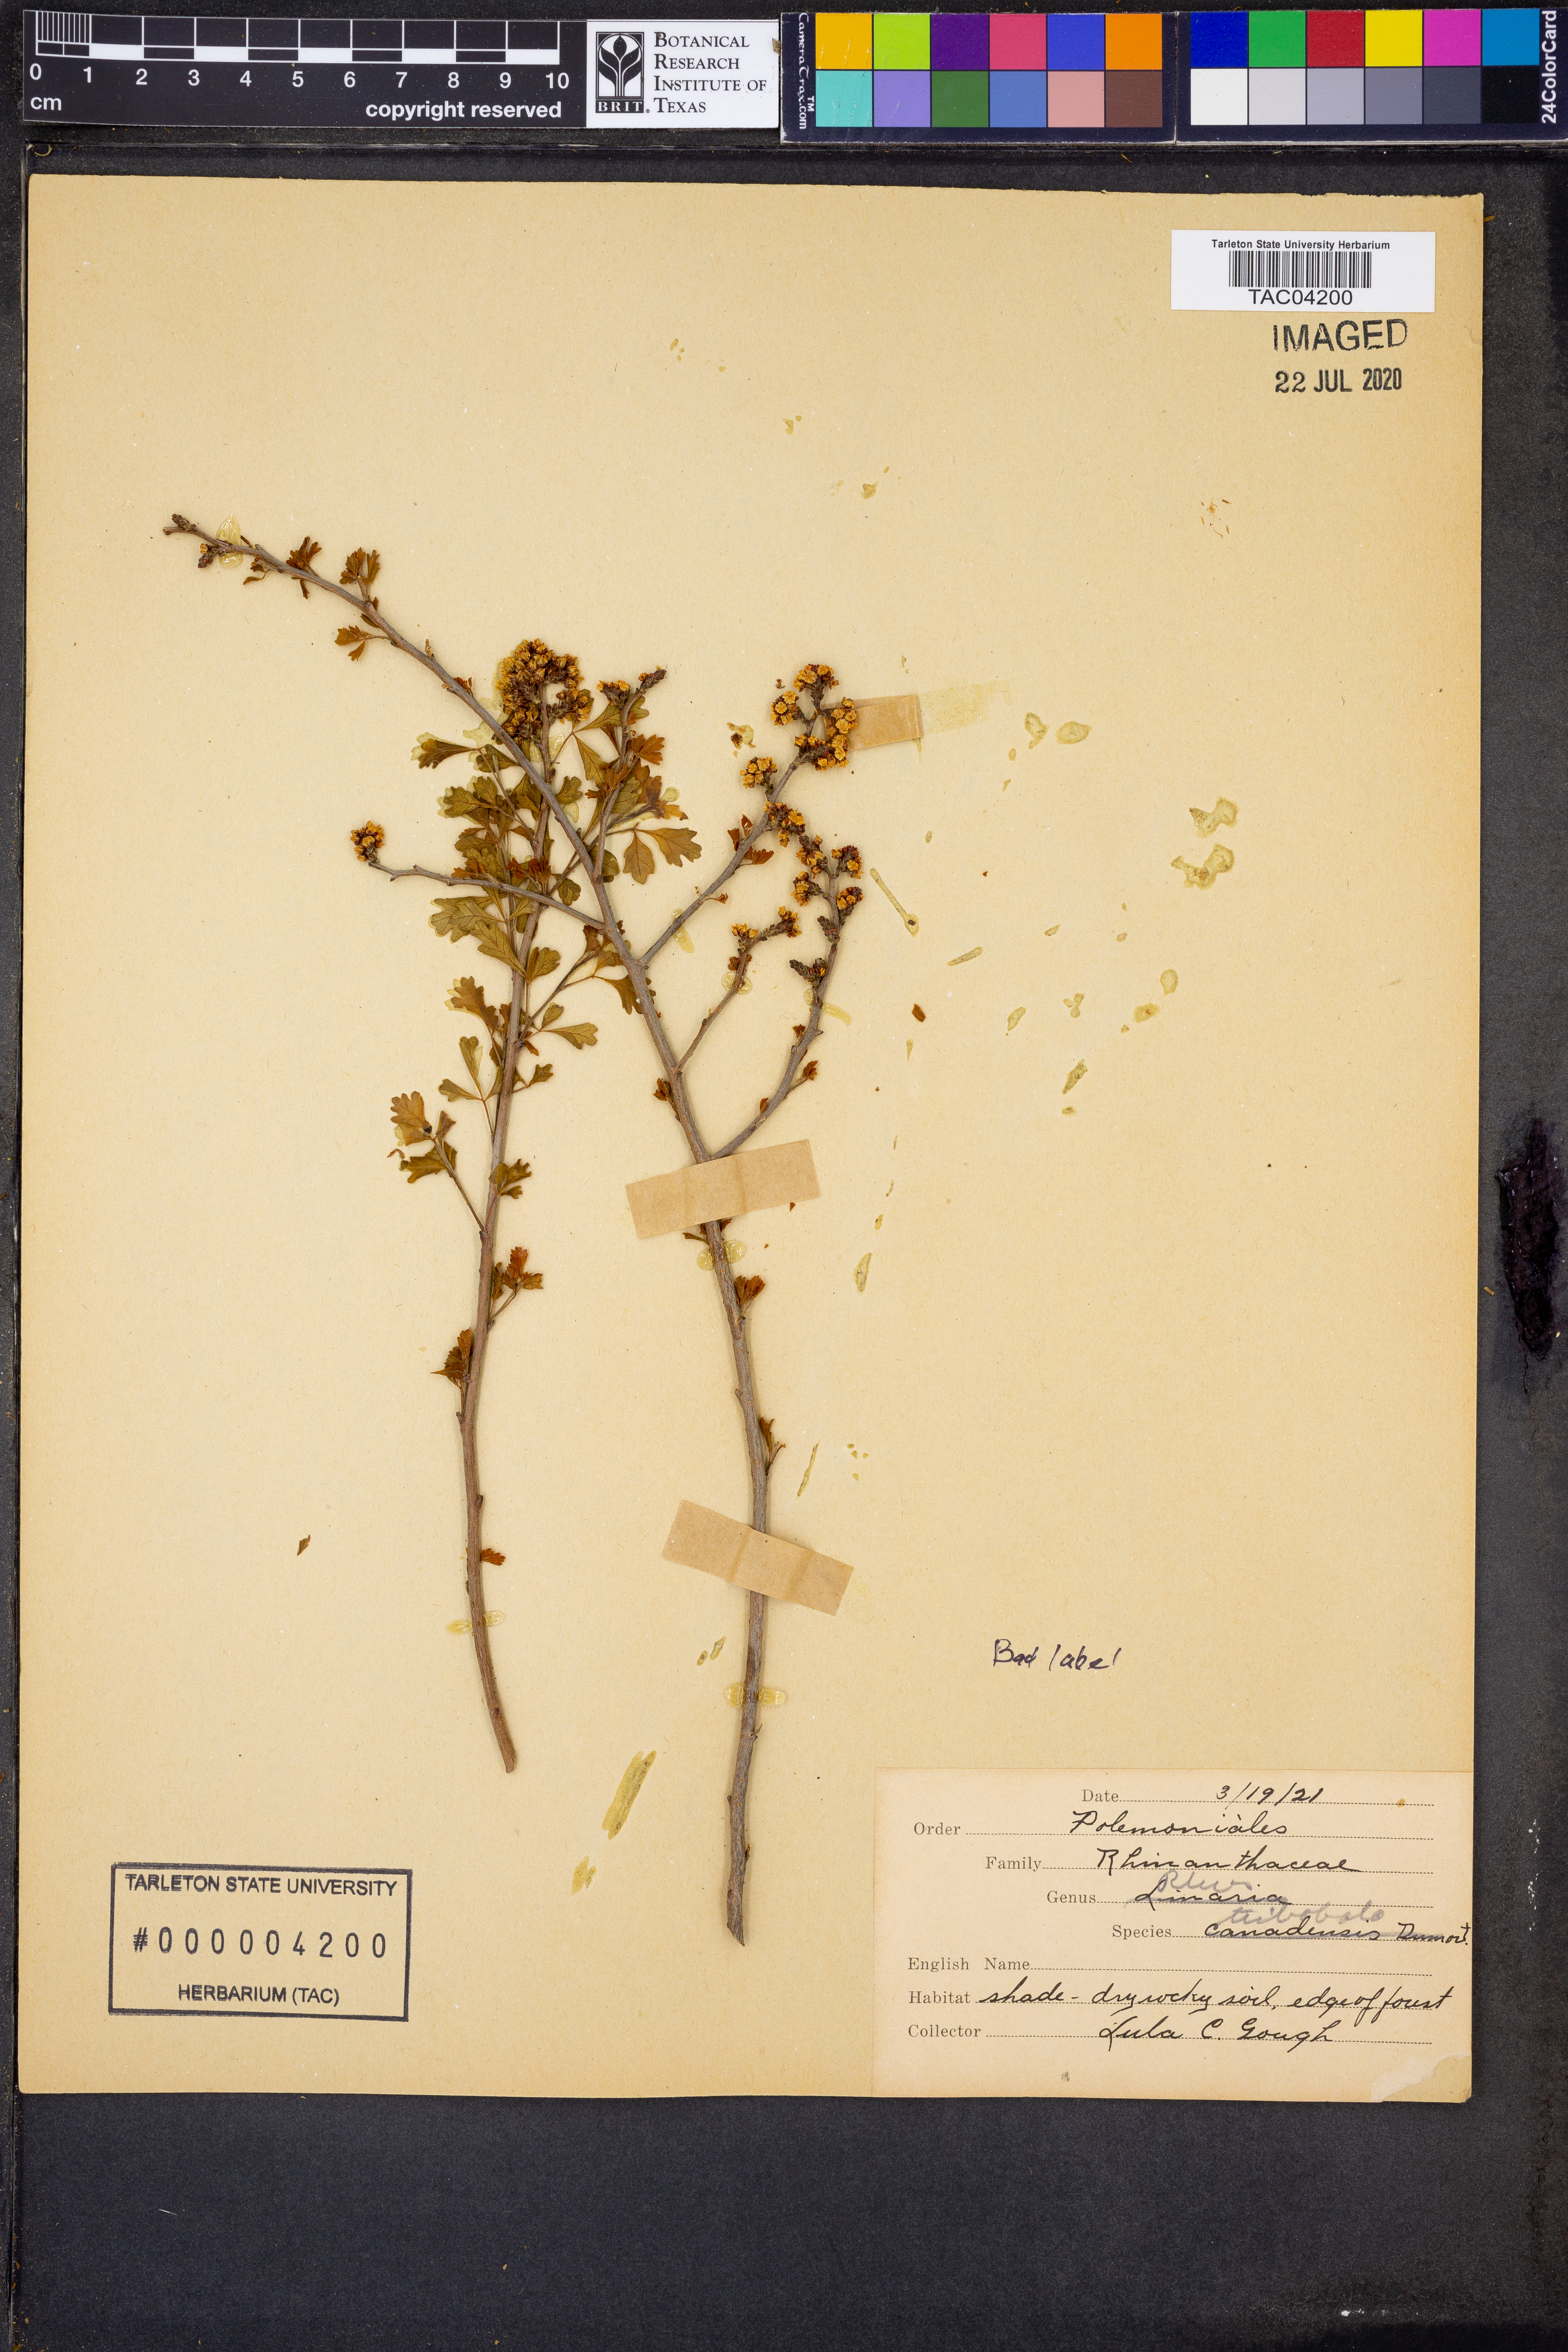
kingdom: Plantae
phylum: Tracheophyta
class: Magnoliopsida
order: Sapindales
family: Anacardiaceae
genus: Rhus
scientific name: Rhus trilobata
